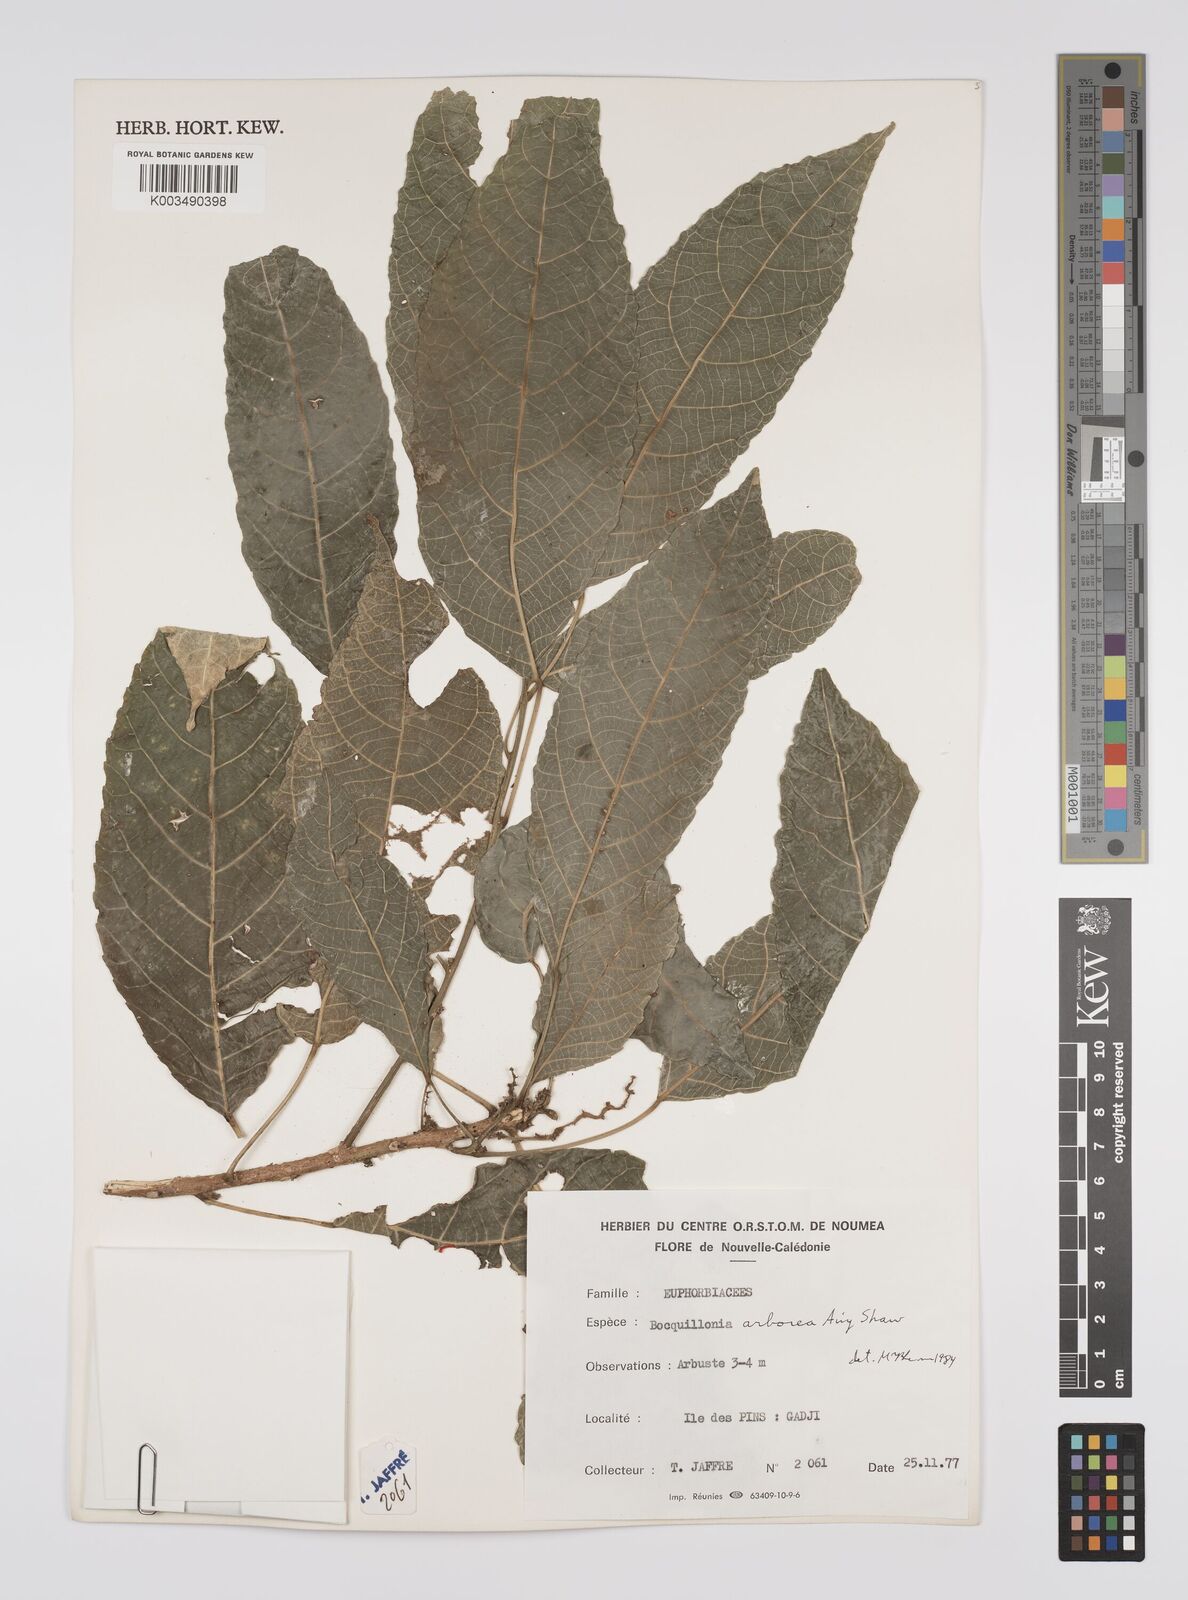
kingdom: Plantae
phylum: Tracheophyta
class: Magnoliopsida
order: Malpighiales
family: Euphorbiaceae
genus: Bocquillonia
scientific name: Bocquillonia arborea
